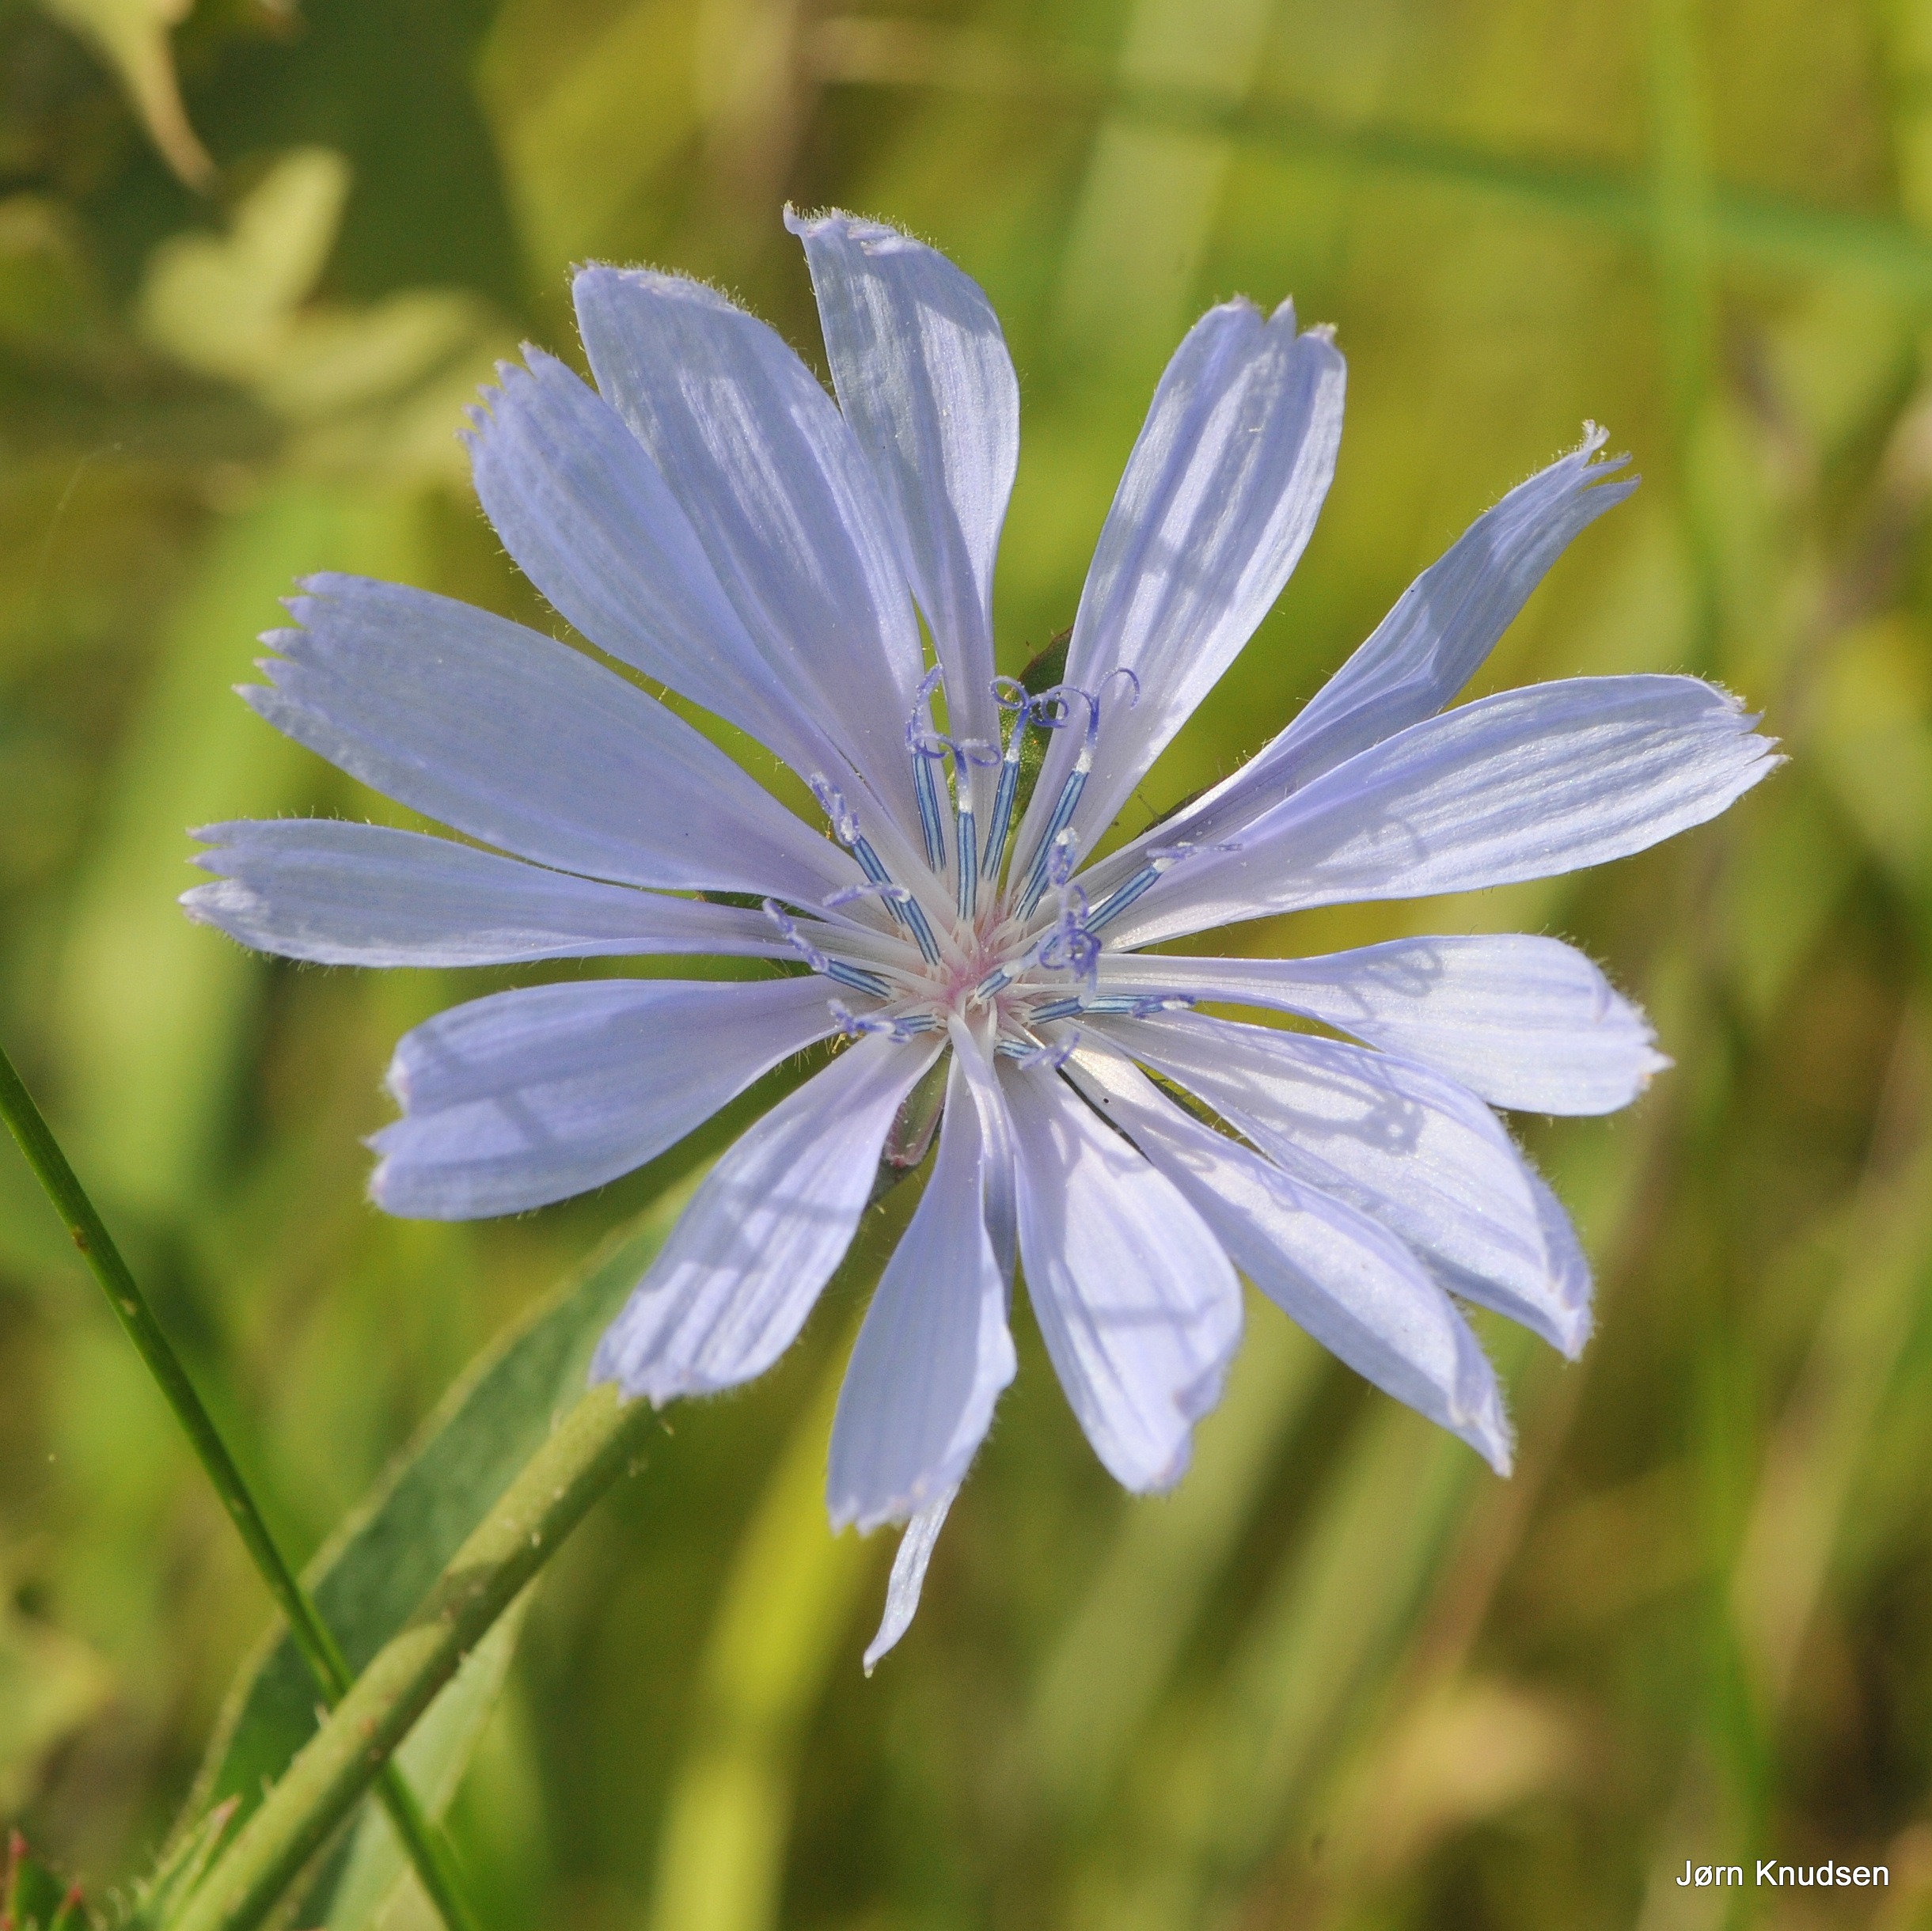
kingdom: Plantae
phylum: Tracheophyta
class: Magnoliopsida
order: Asterales
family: Asteraceae
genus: Cichorium
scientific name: Cichorium intybus
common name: Cikorie
